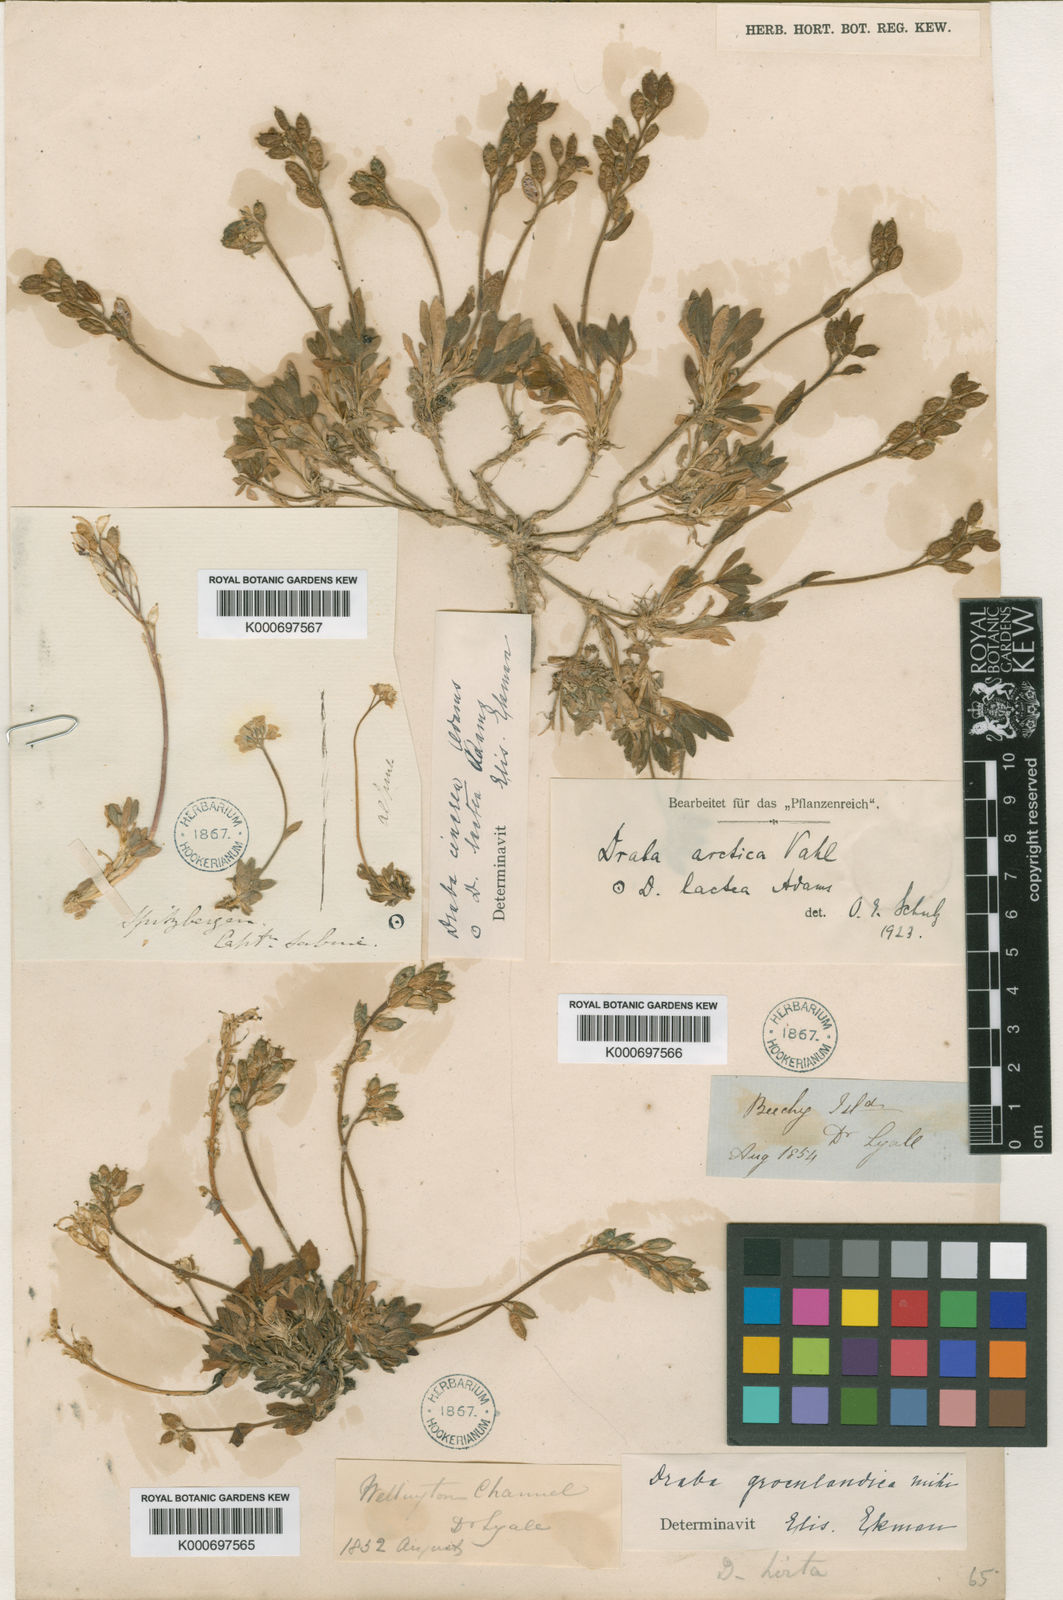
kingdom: Plantae
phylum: Tracheophyta
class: Magnoliopsida
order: Brassicales
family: Brassicaceae
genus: Draba
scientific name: Draba glabella
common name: Glaucous draba
